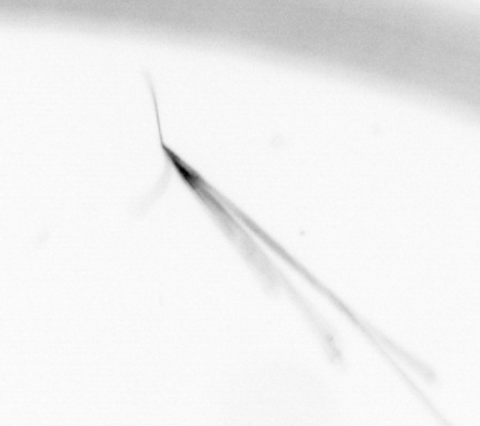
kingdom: Animalia
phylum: Chaetognatha
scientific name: Chaetognatha
